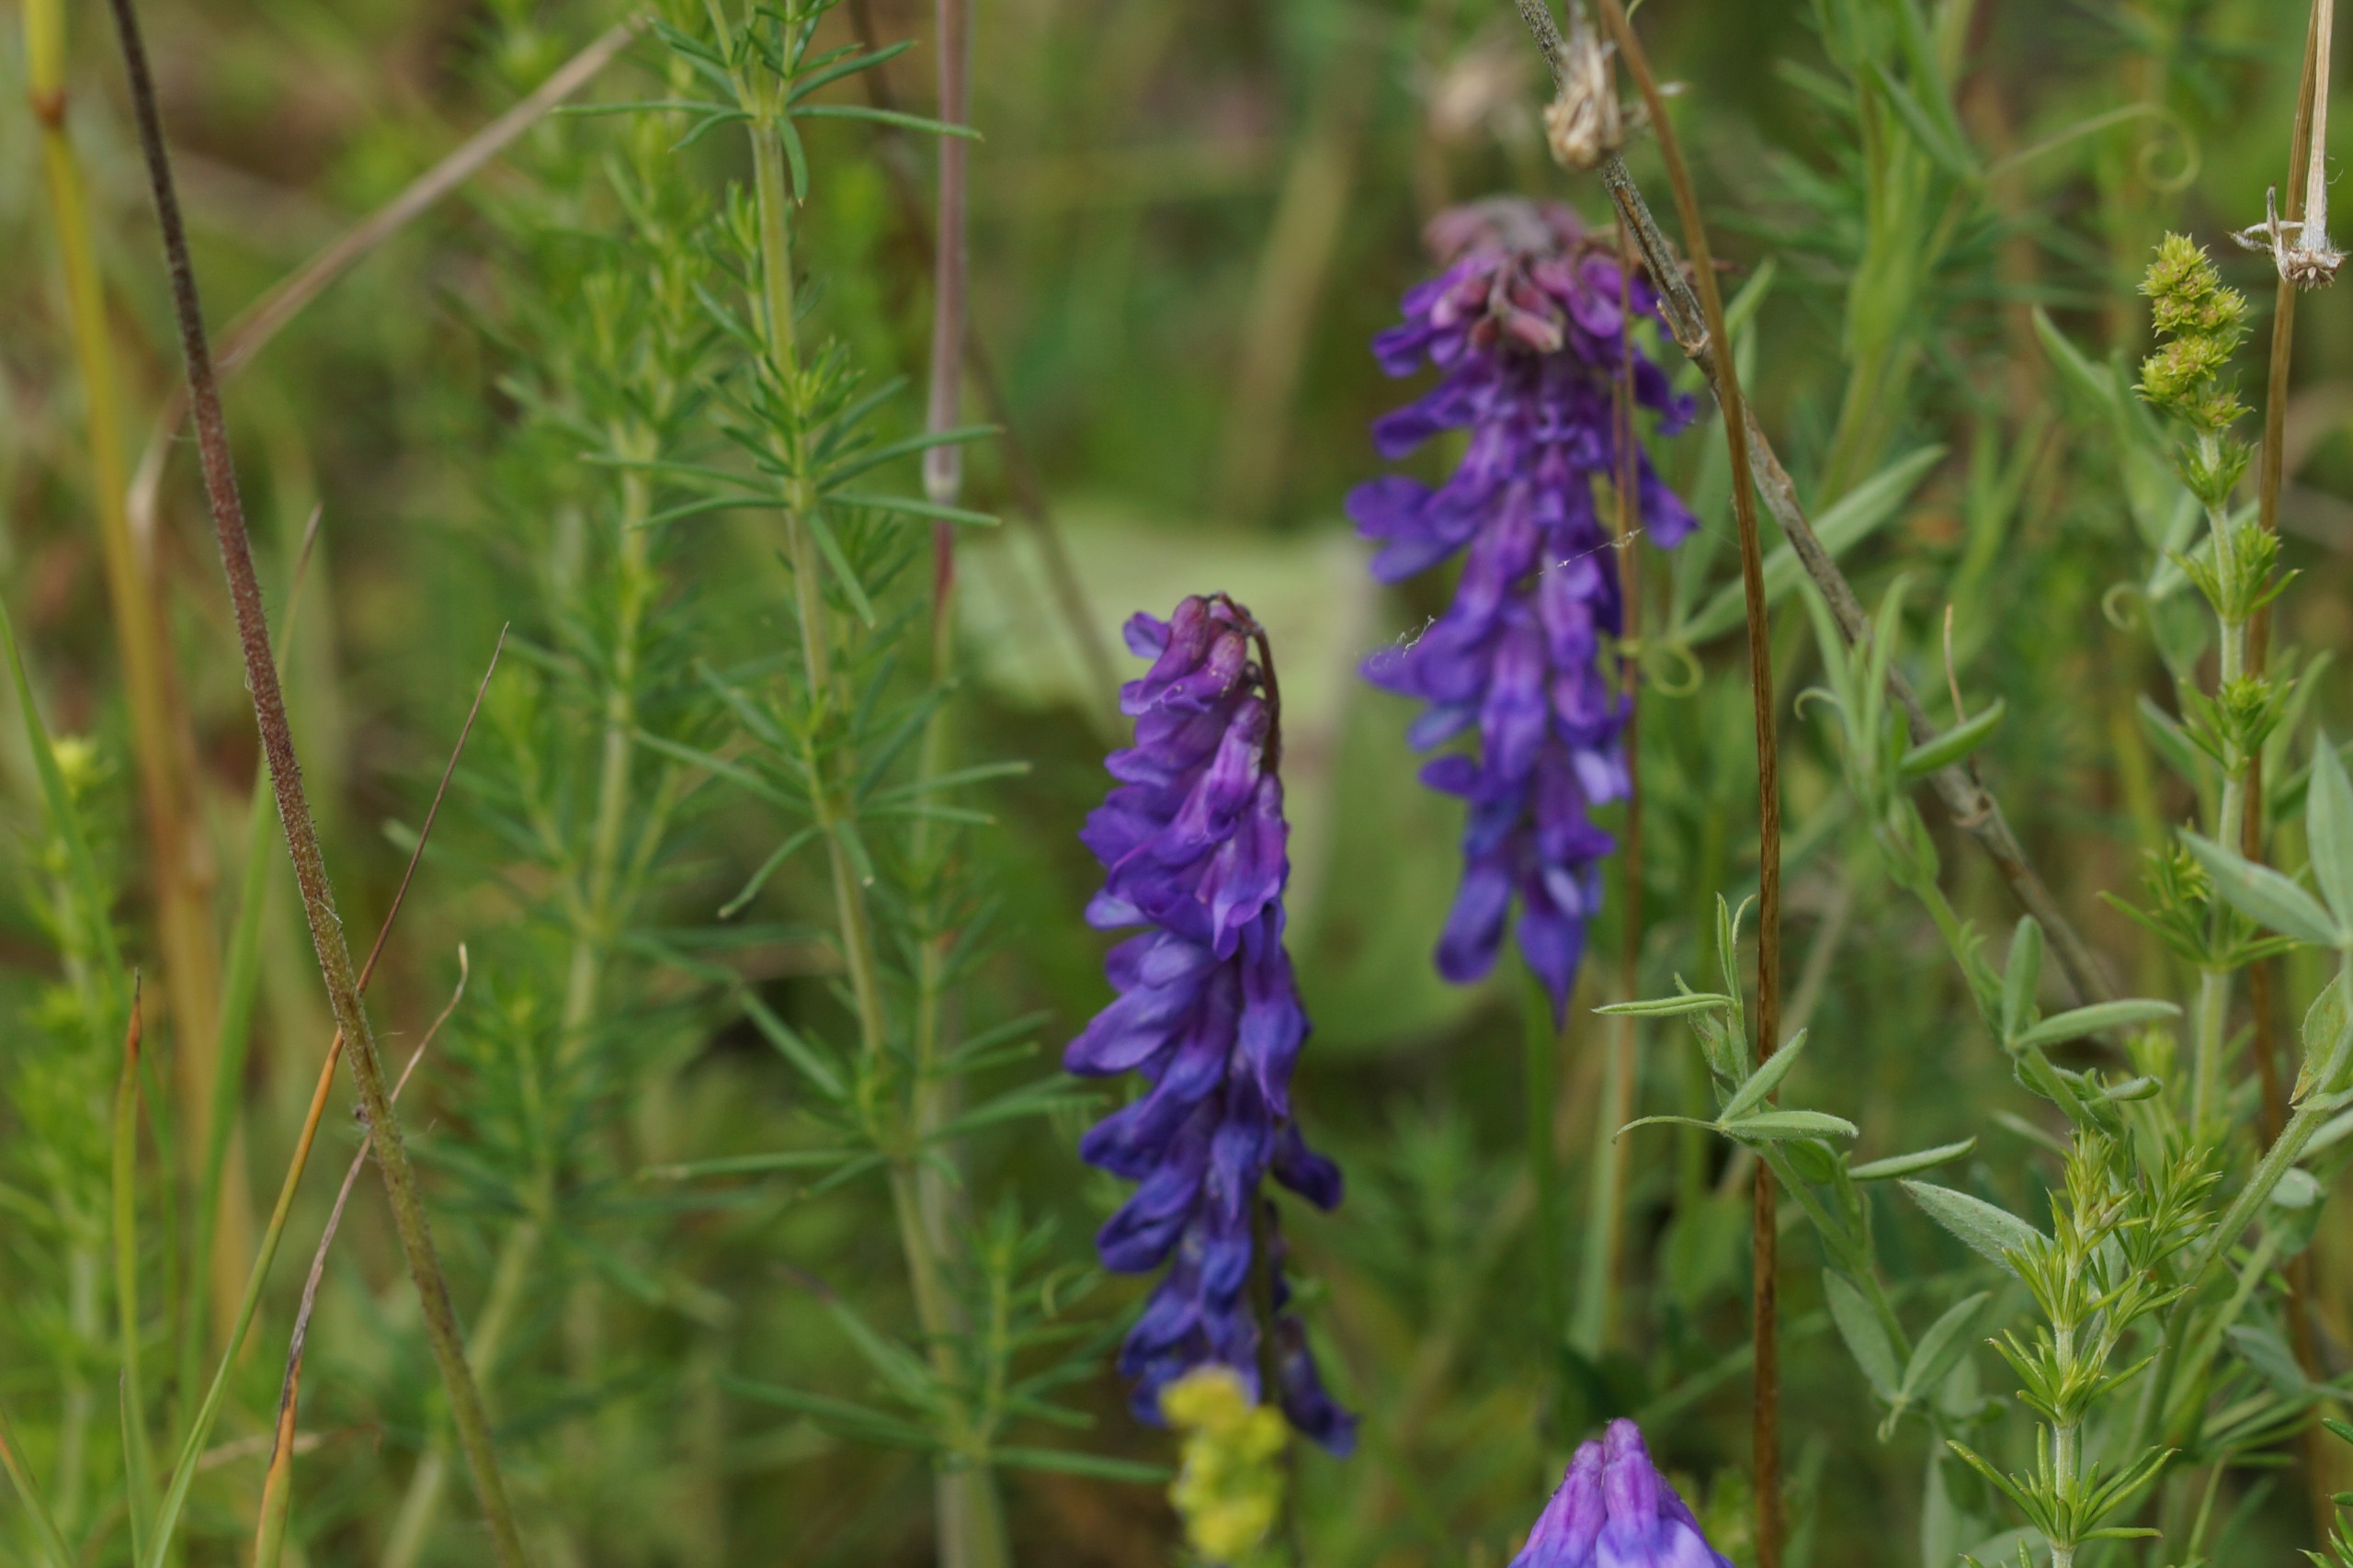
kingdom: Plantae
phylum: Tracheophyta
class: Magnoliopsida
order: Fabales
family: Fabaceae
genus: Vicia
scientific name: Vicia cracca
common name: Muse-vikke
